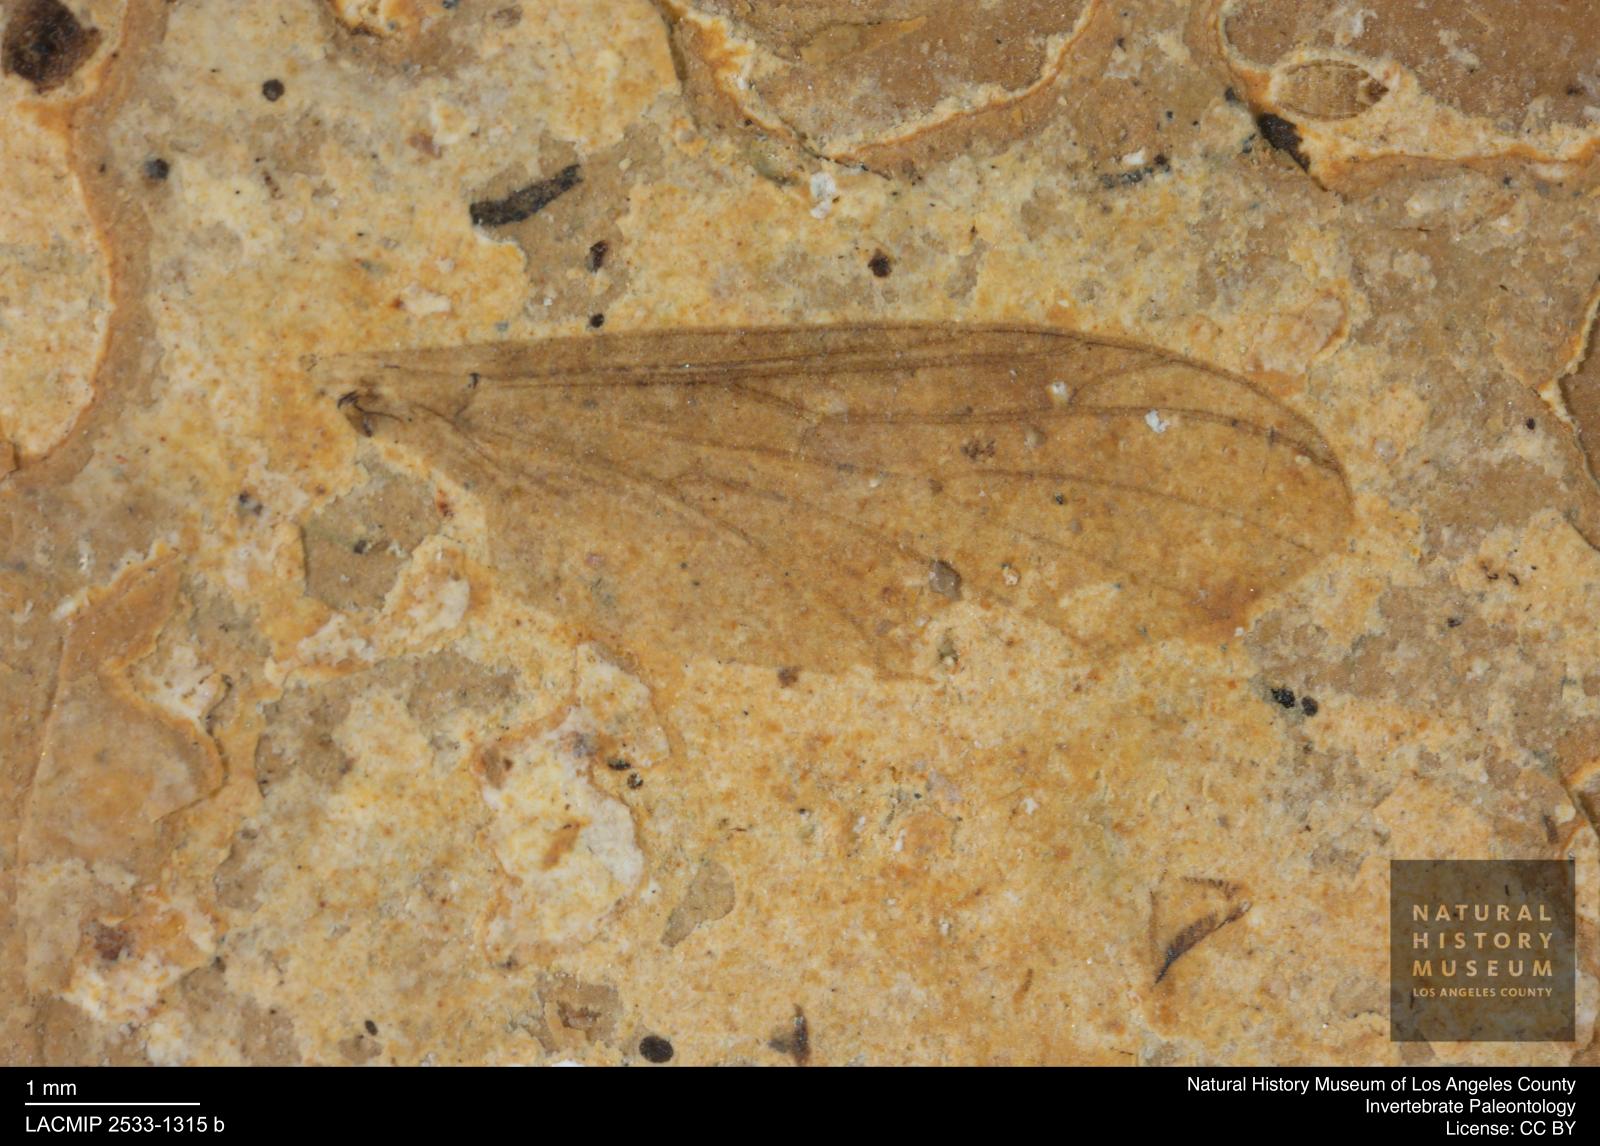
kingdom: Animalia
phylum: Arthropoda
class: Insecta
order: Diptera
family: Bibionidae
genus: Plecia
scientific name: Plecia pinguis
